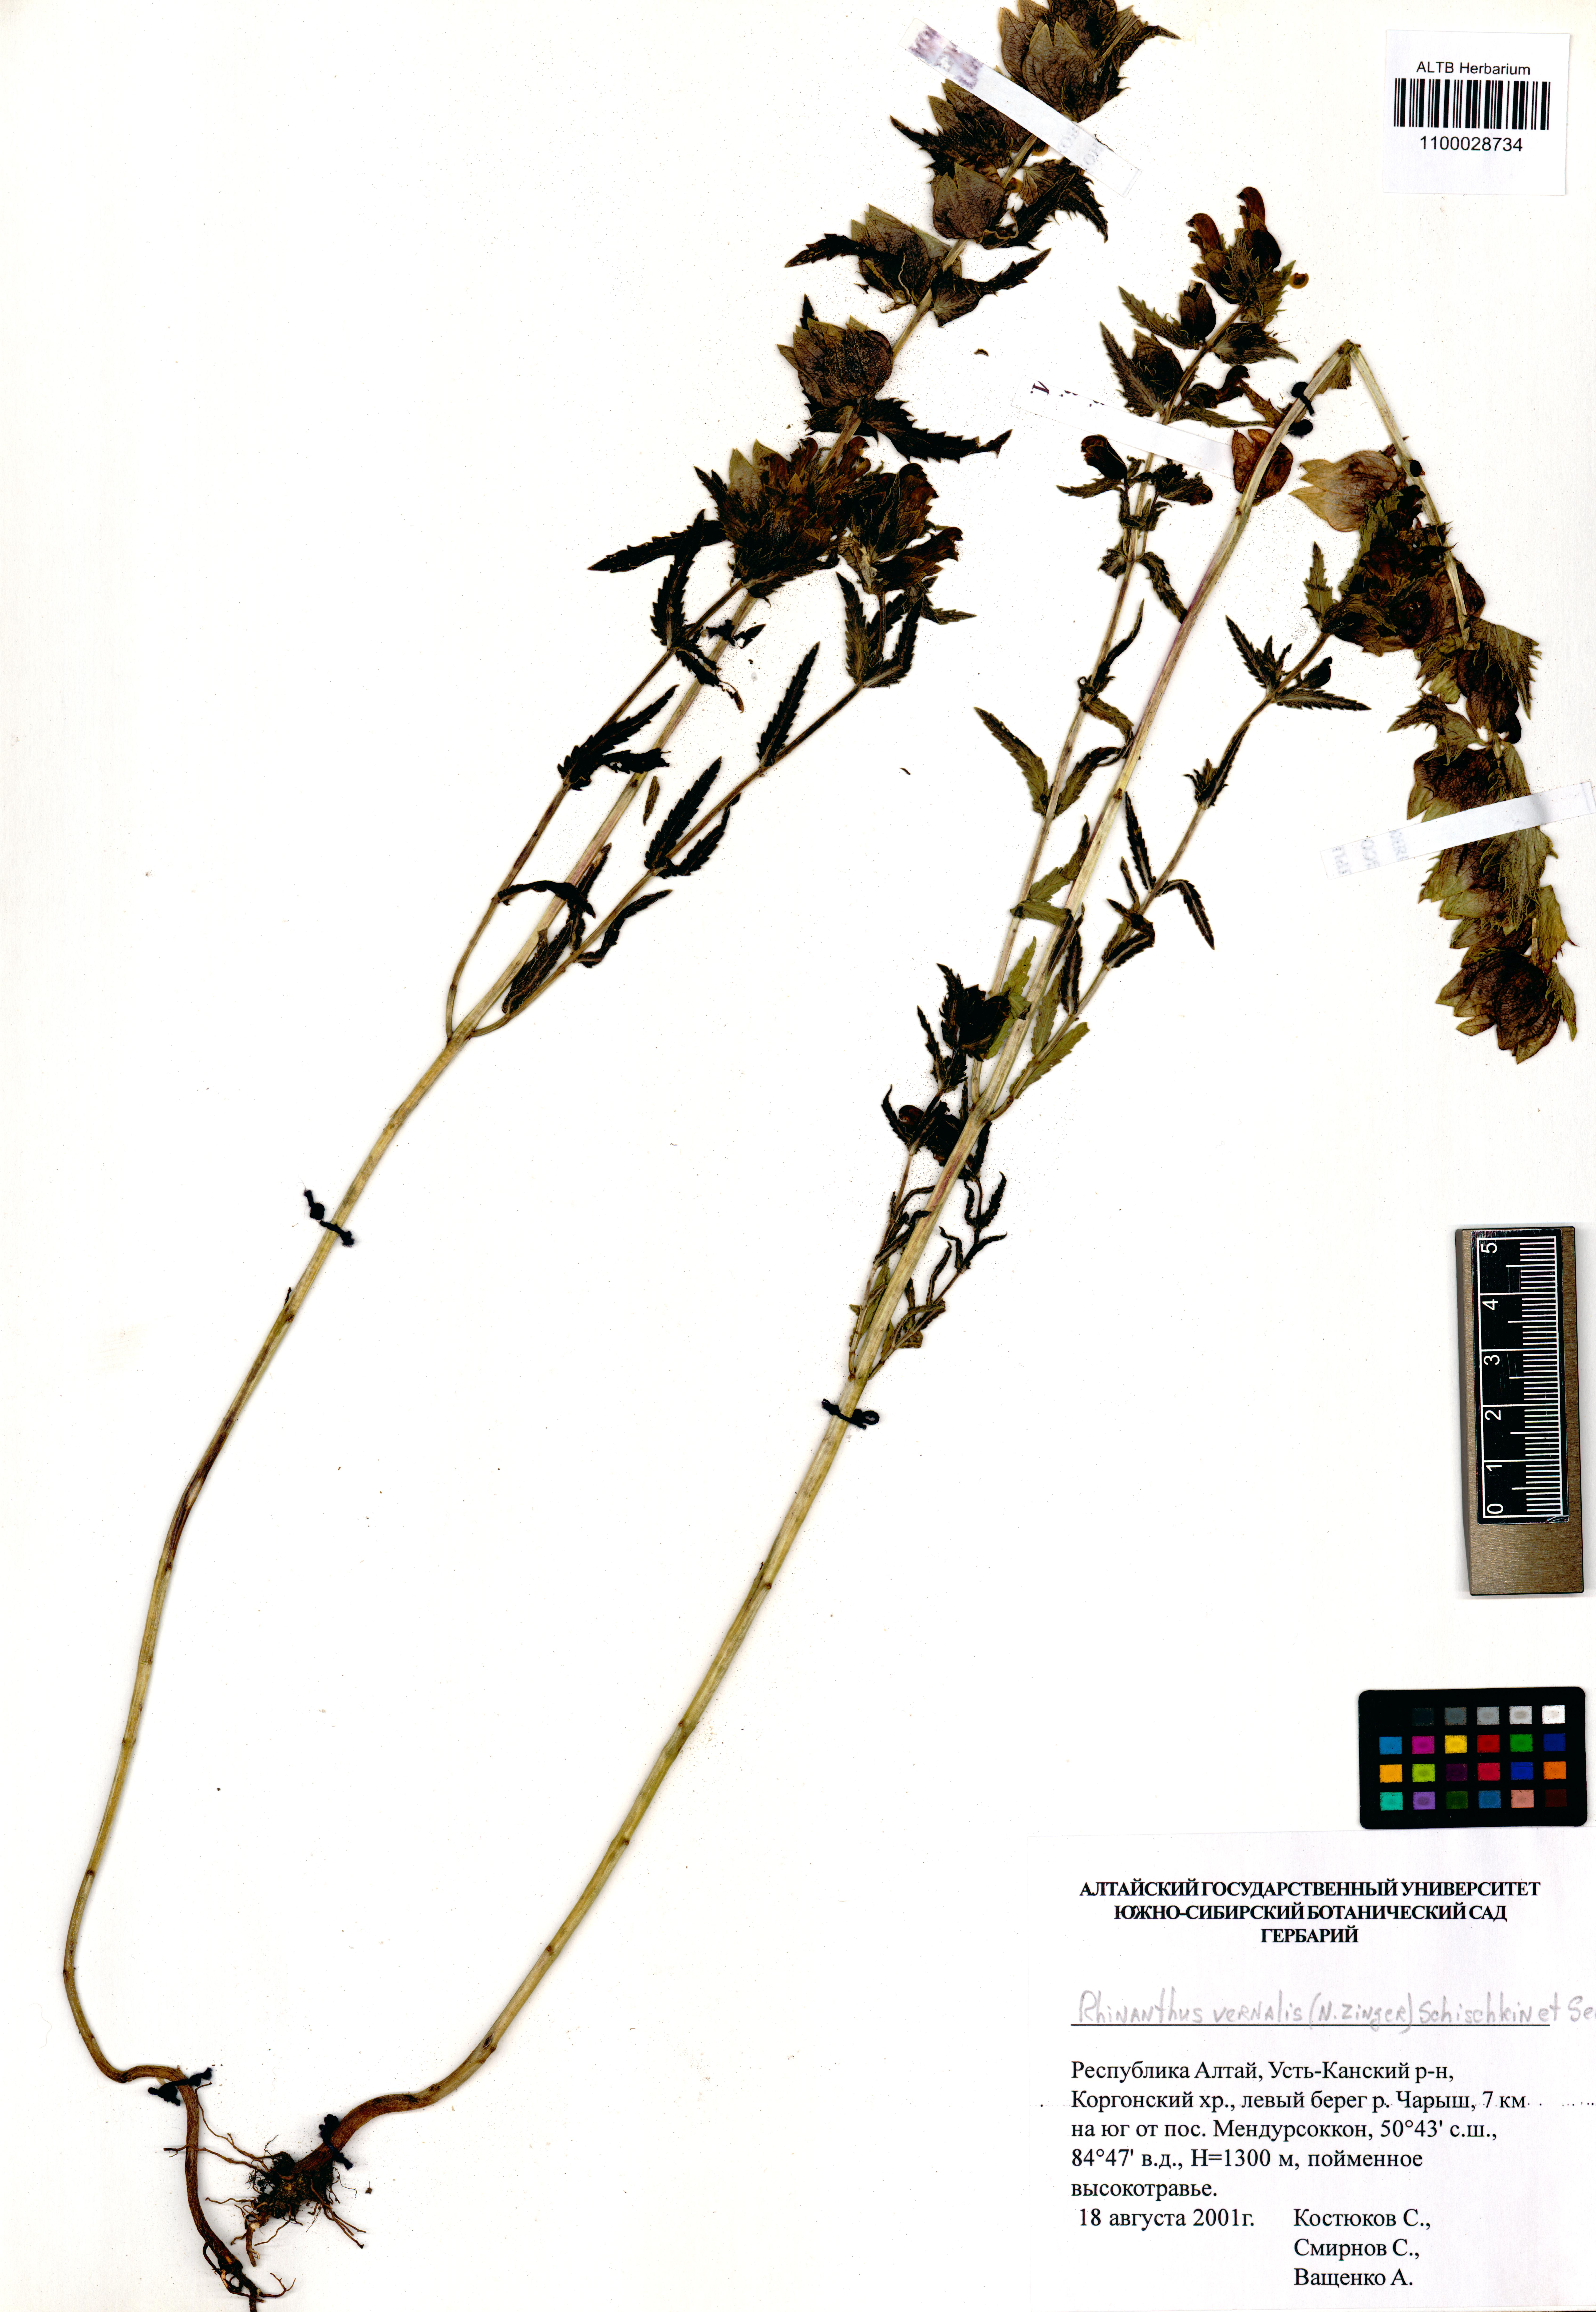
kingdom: Plantae
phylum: Tracheophyta
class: Magnoliopsida
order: Lamiales
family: Orobanchaceae
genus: Rhinanthus
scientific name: Rhinanthus serotinus
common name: Late-flowering yellow rattle
